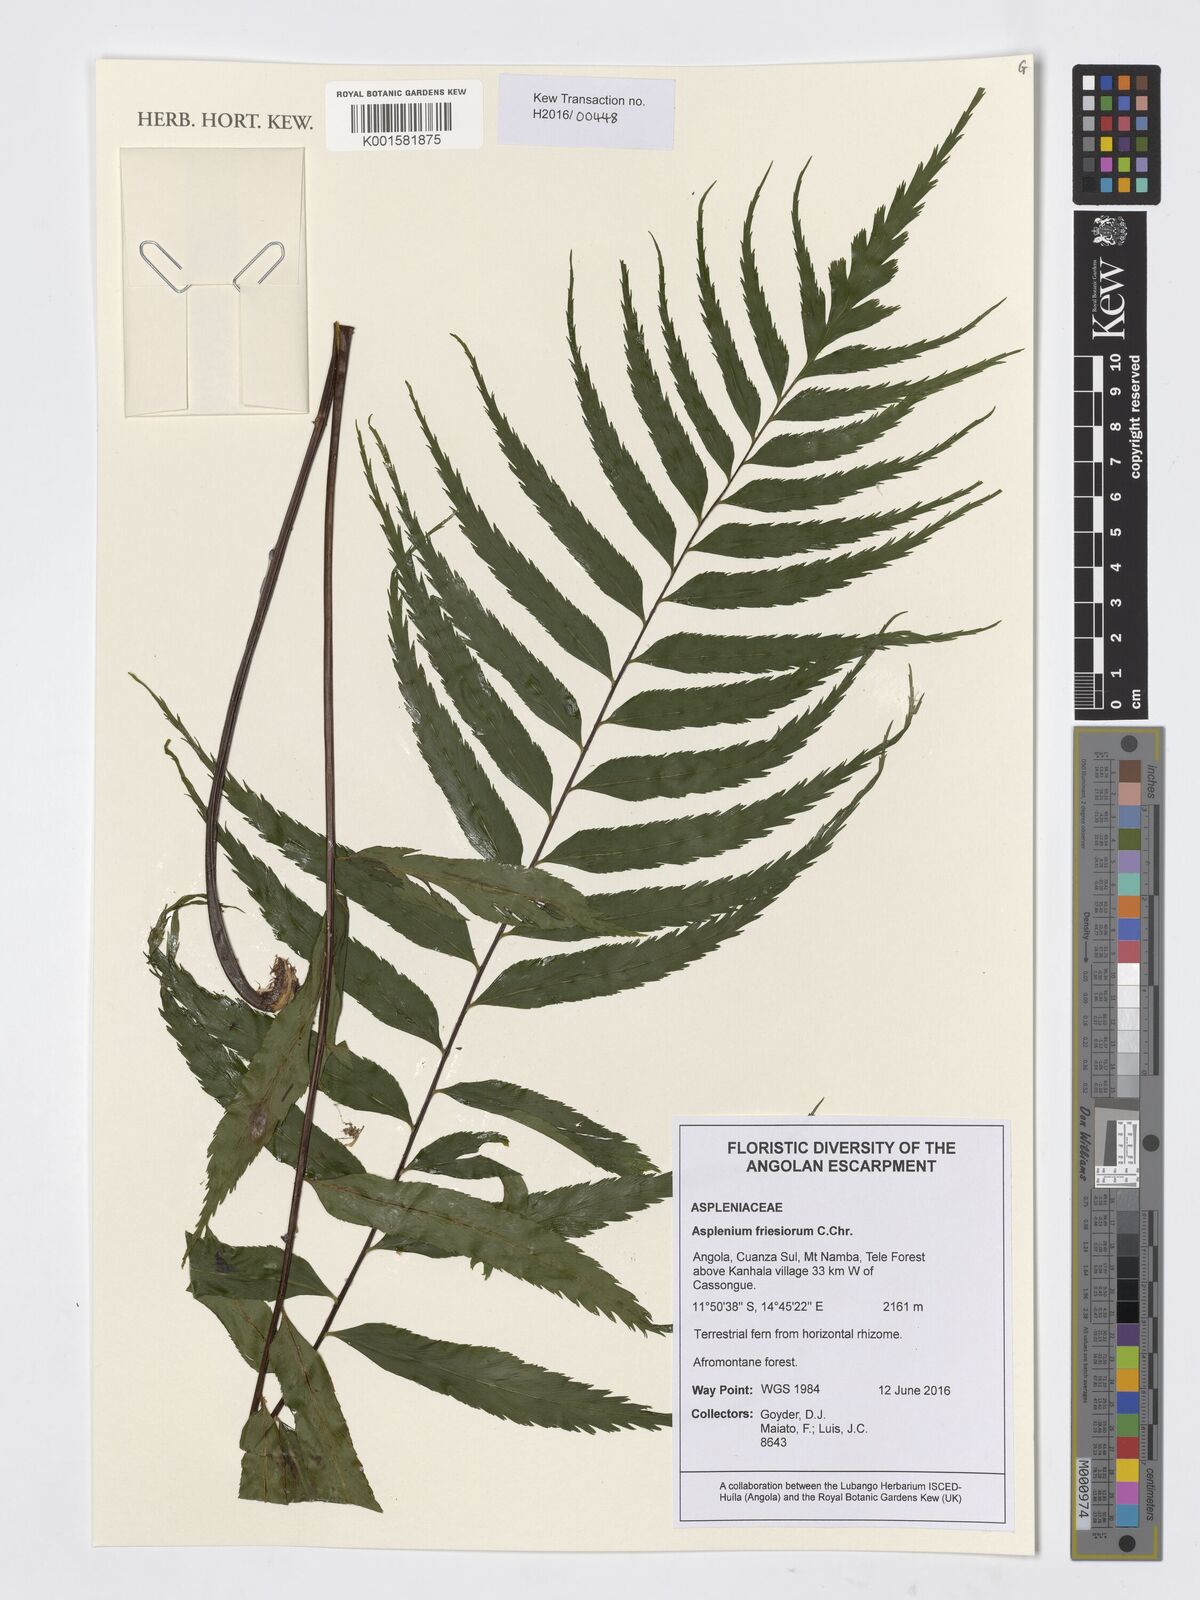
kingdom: Plantae
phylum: Tracheophyta
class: Polypodiopsida
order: Polypodiales
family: Aspleniaceae
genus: Asplenium
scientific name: Asplenium gueinzianum
